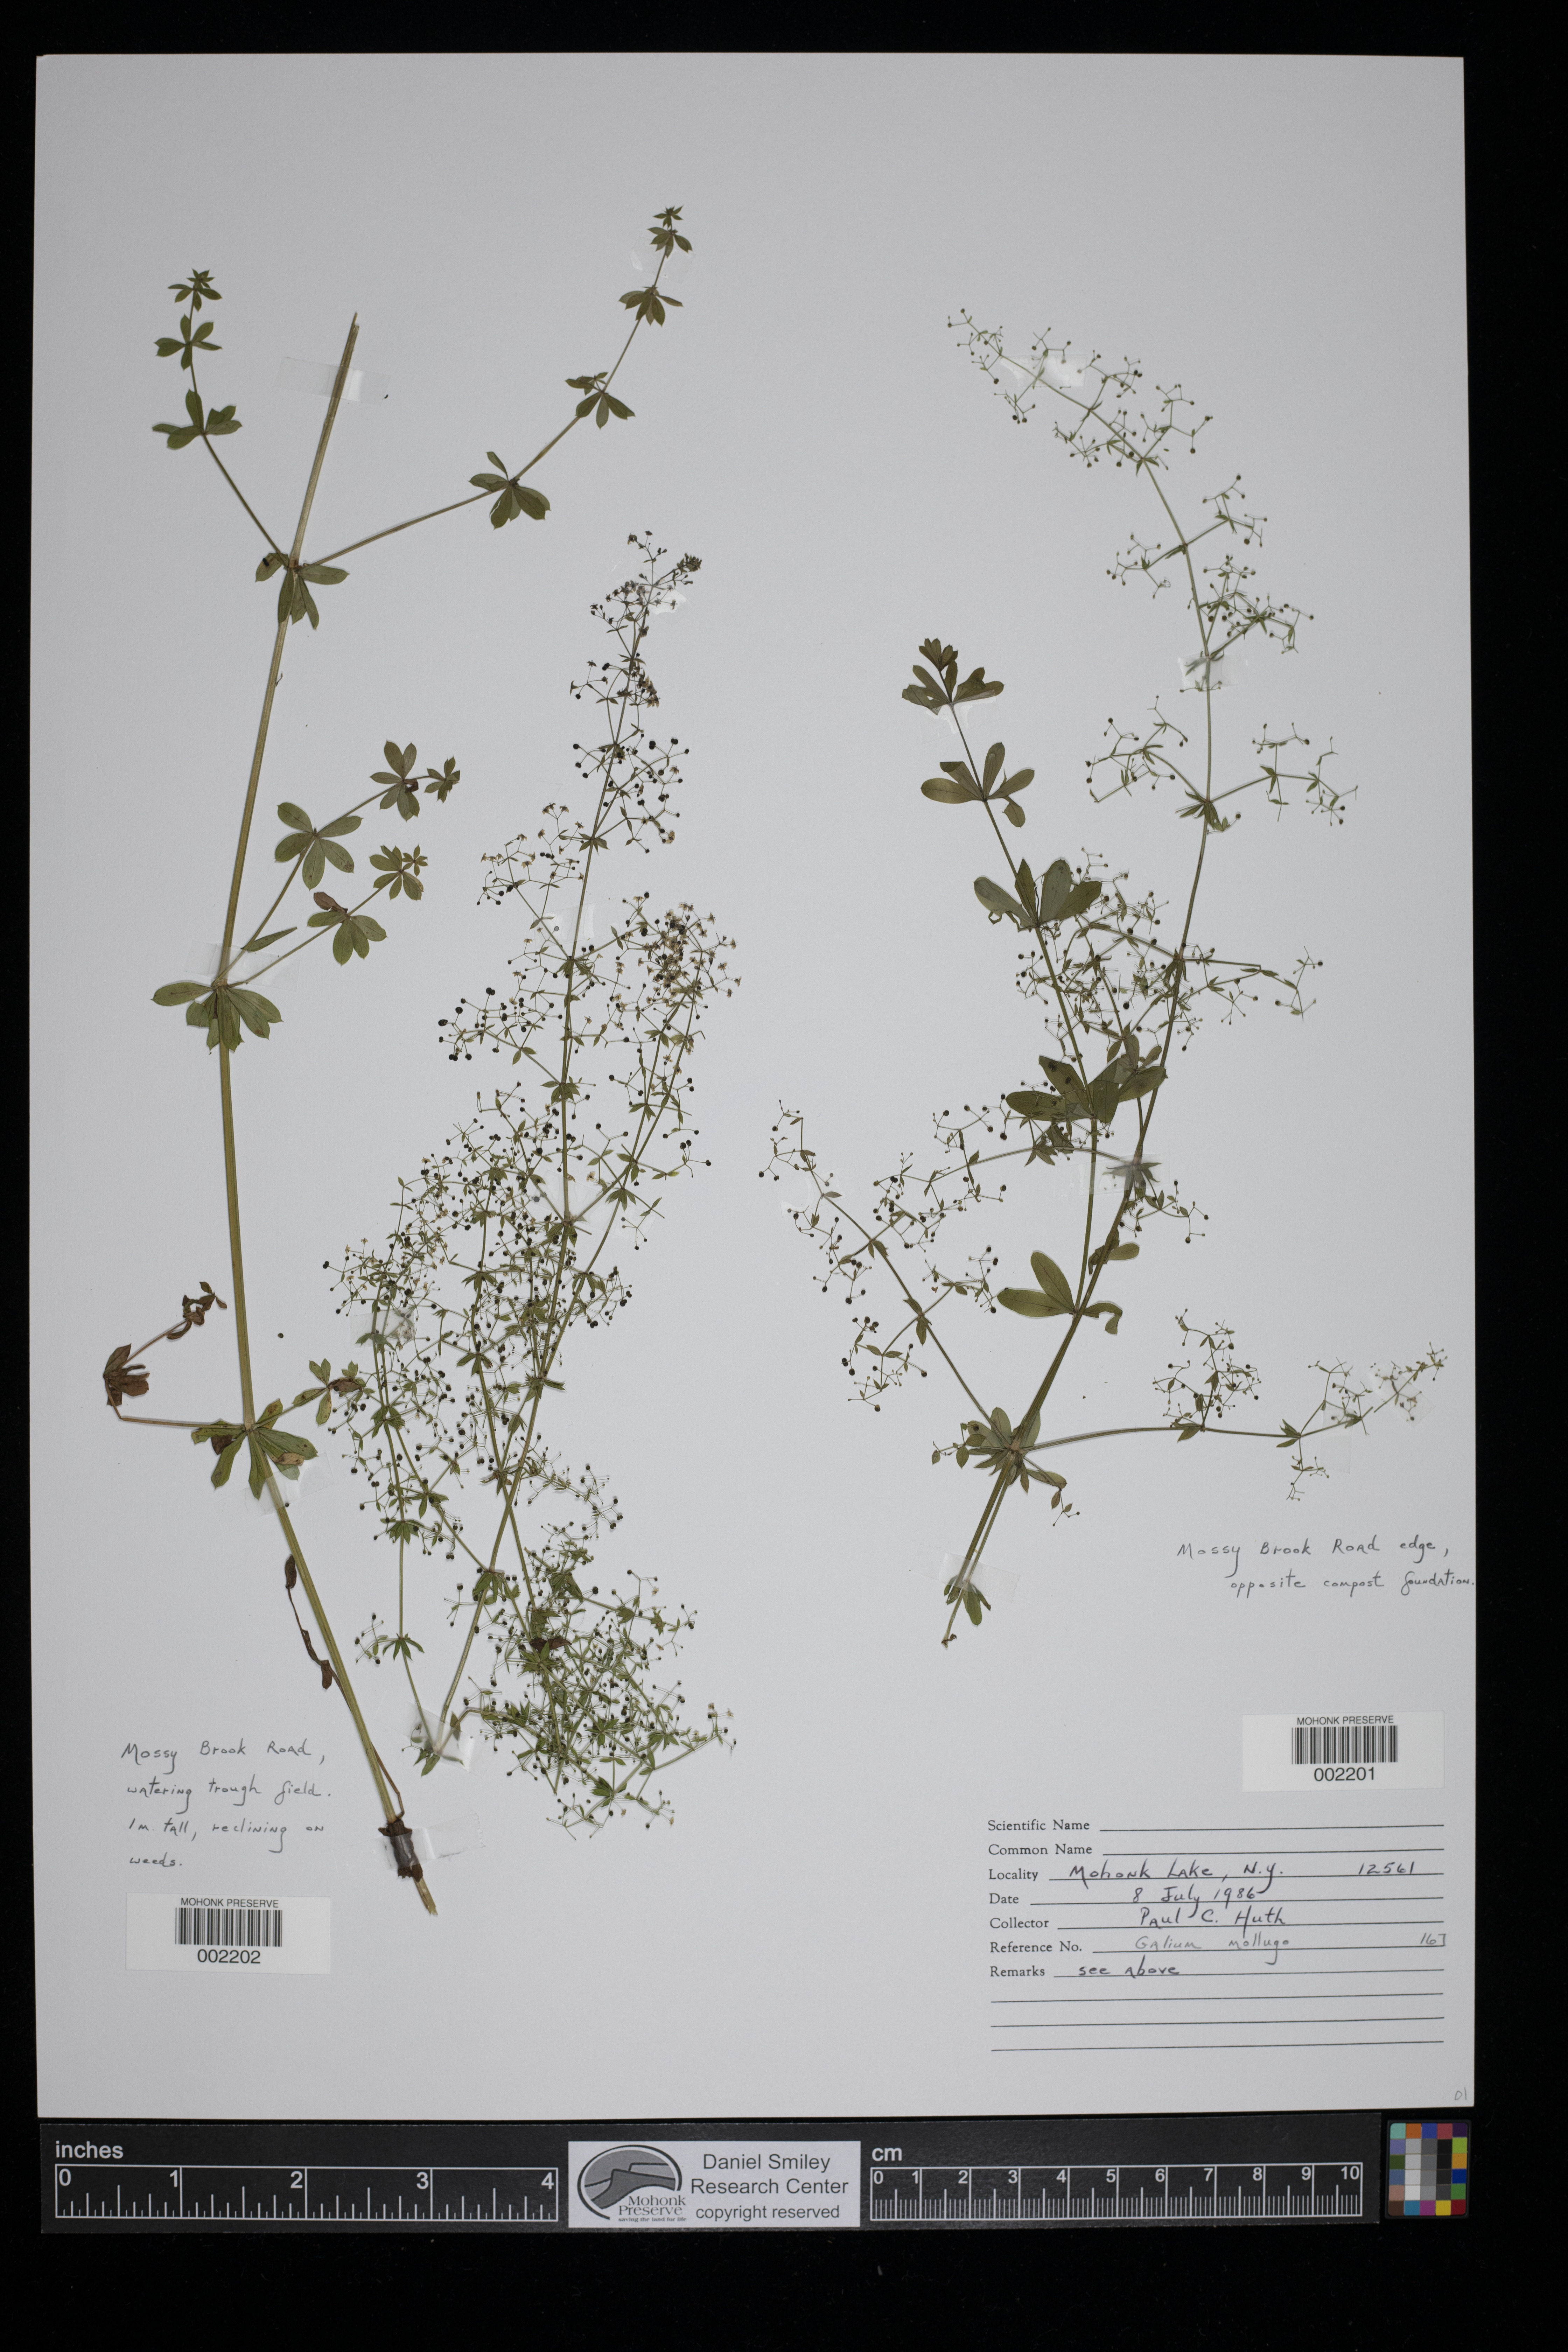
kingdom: Plantae
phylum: Tracheophyta
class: Magnoliopsida
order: Gentianales
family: Rubiaceae
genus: Galium
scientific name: Galium mollugo
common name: Hedge bedstraw
